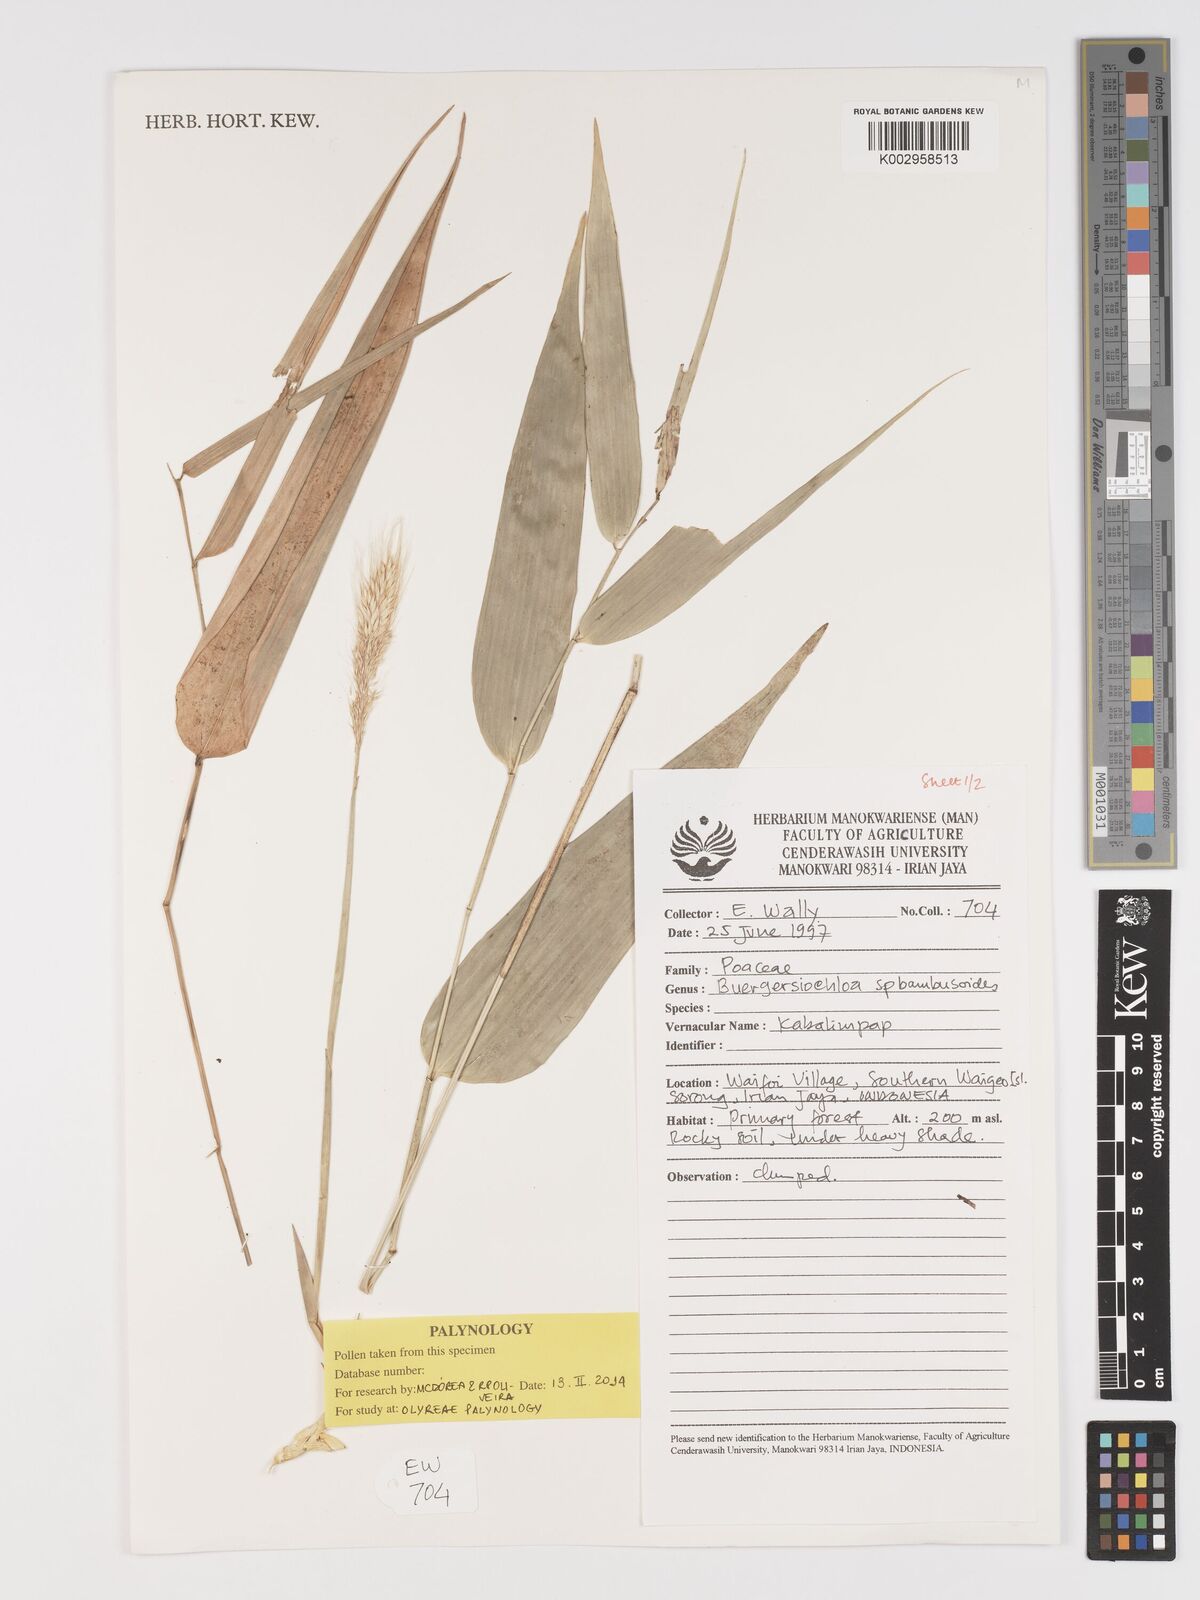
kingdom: Plantae
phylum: Tracheophyta
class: Liliopsida
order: Poales
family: Poaceae
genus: Buergersiochloa
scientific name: Buergersiochloa bambusoides
